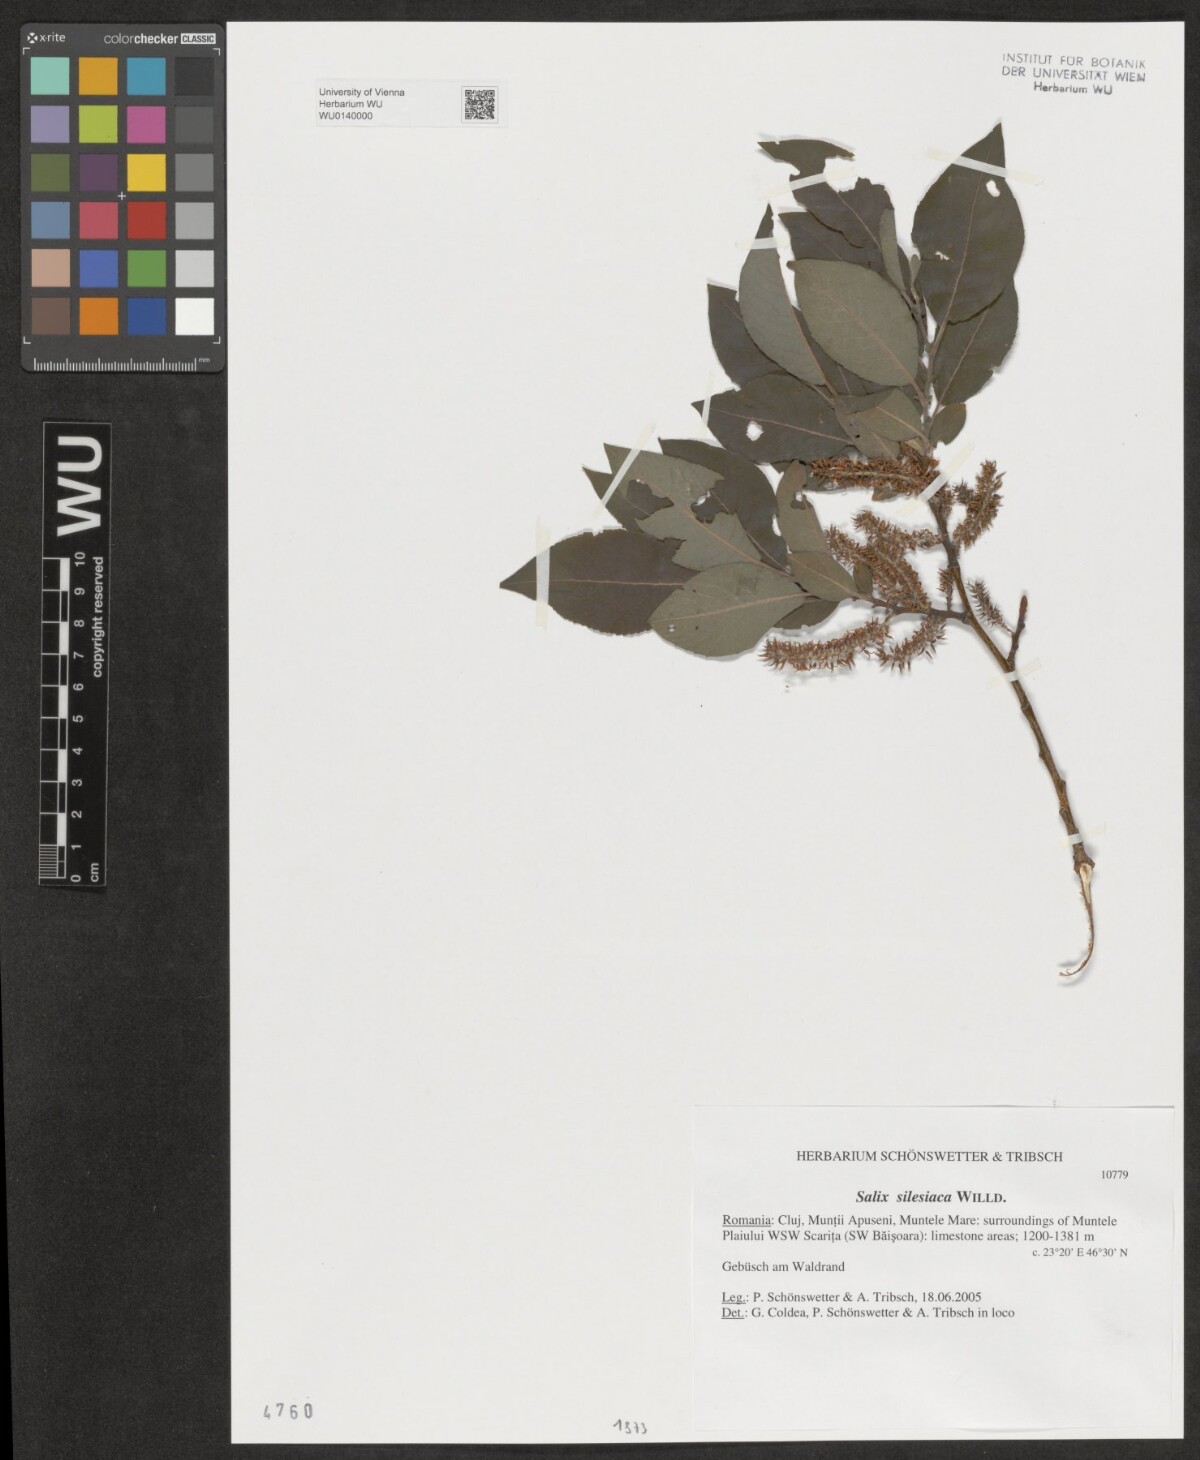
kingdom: Plantae
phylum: Tracheophyta
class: Magnoliopsida
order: Malpighiales
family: Salicaceae
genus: Salix
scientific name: Salix silesiaca
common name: Silesian willow
